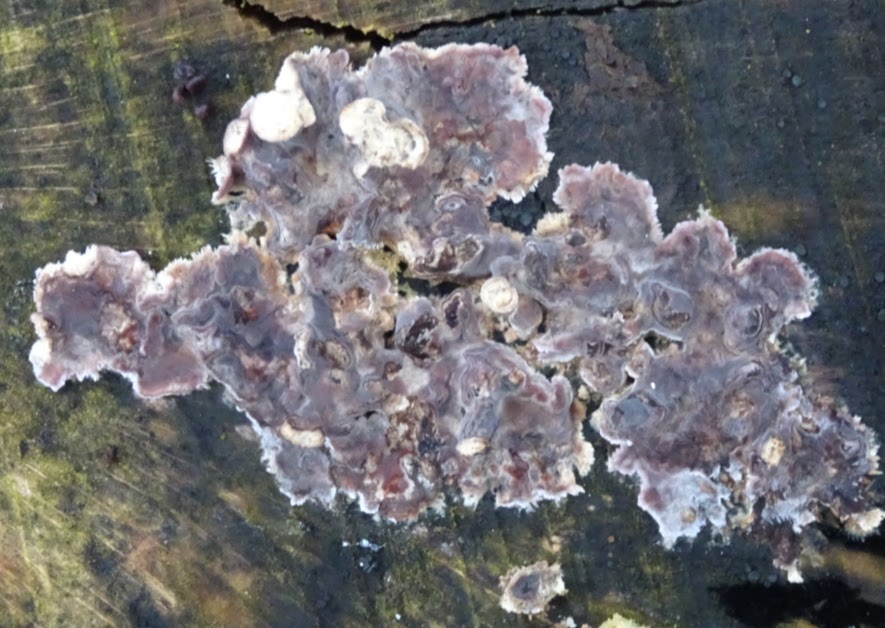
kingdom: Fungi
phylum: Basidiomycota
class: Agaricomycetes
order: Agaricales
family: Cyphellaceae
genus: Chondrostereum
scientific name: Chondrostereum purpureum
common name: purpurlædersvamp
